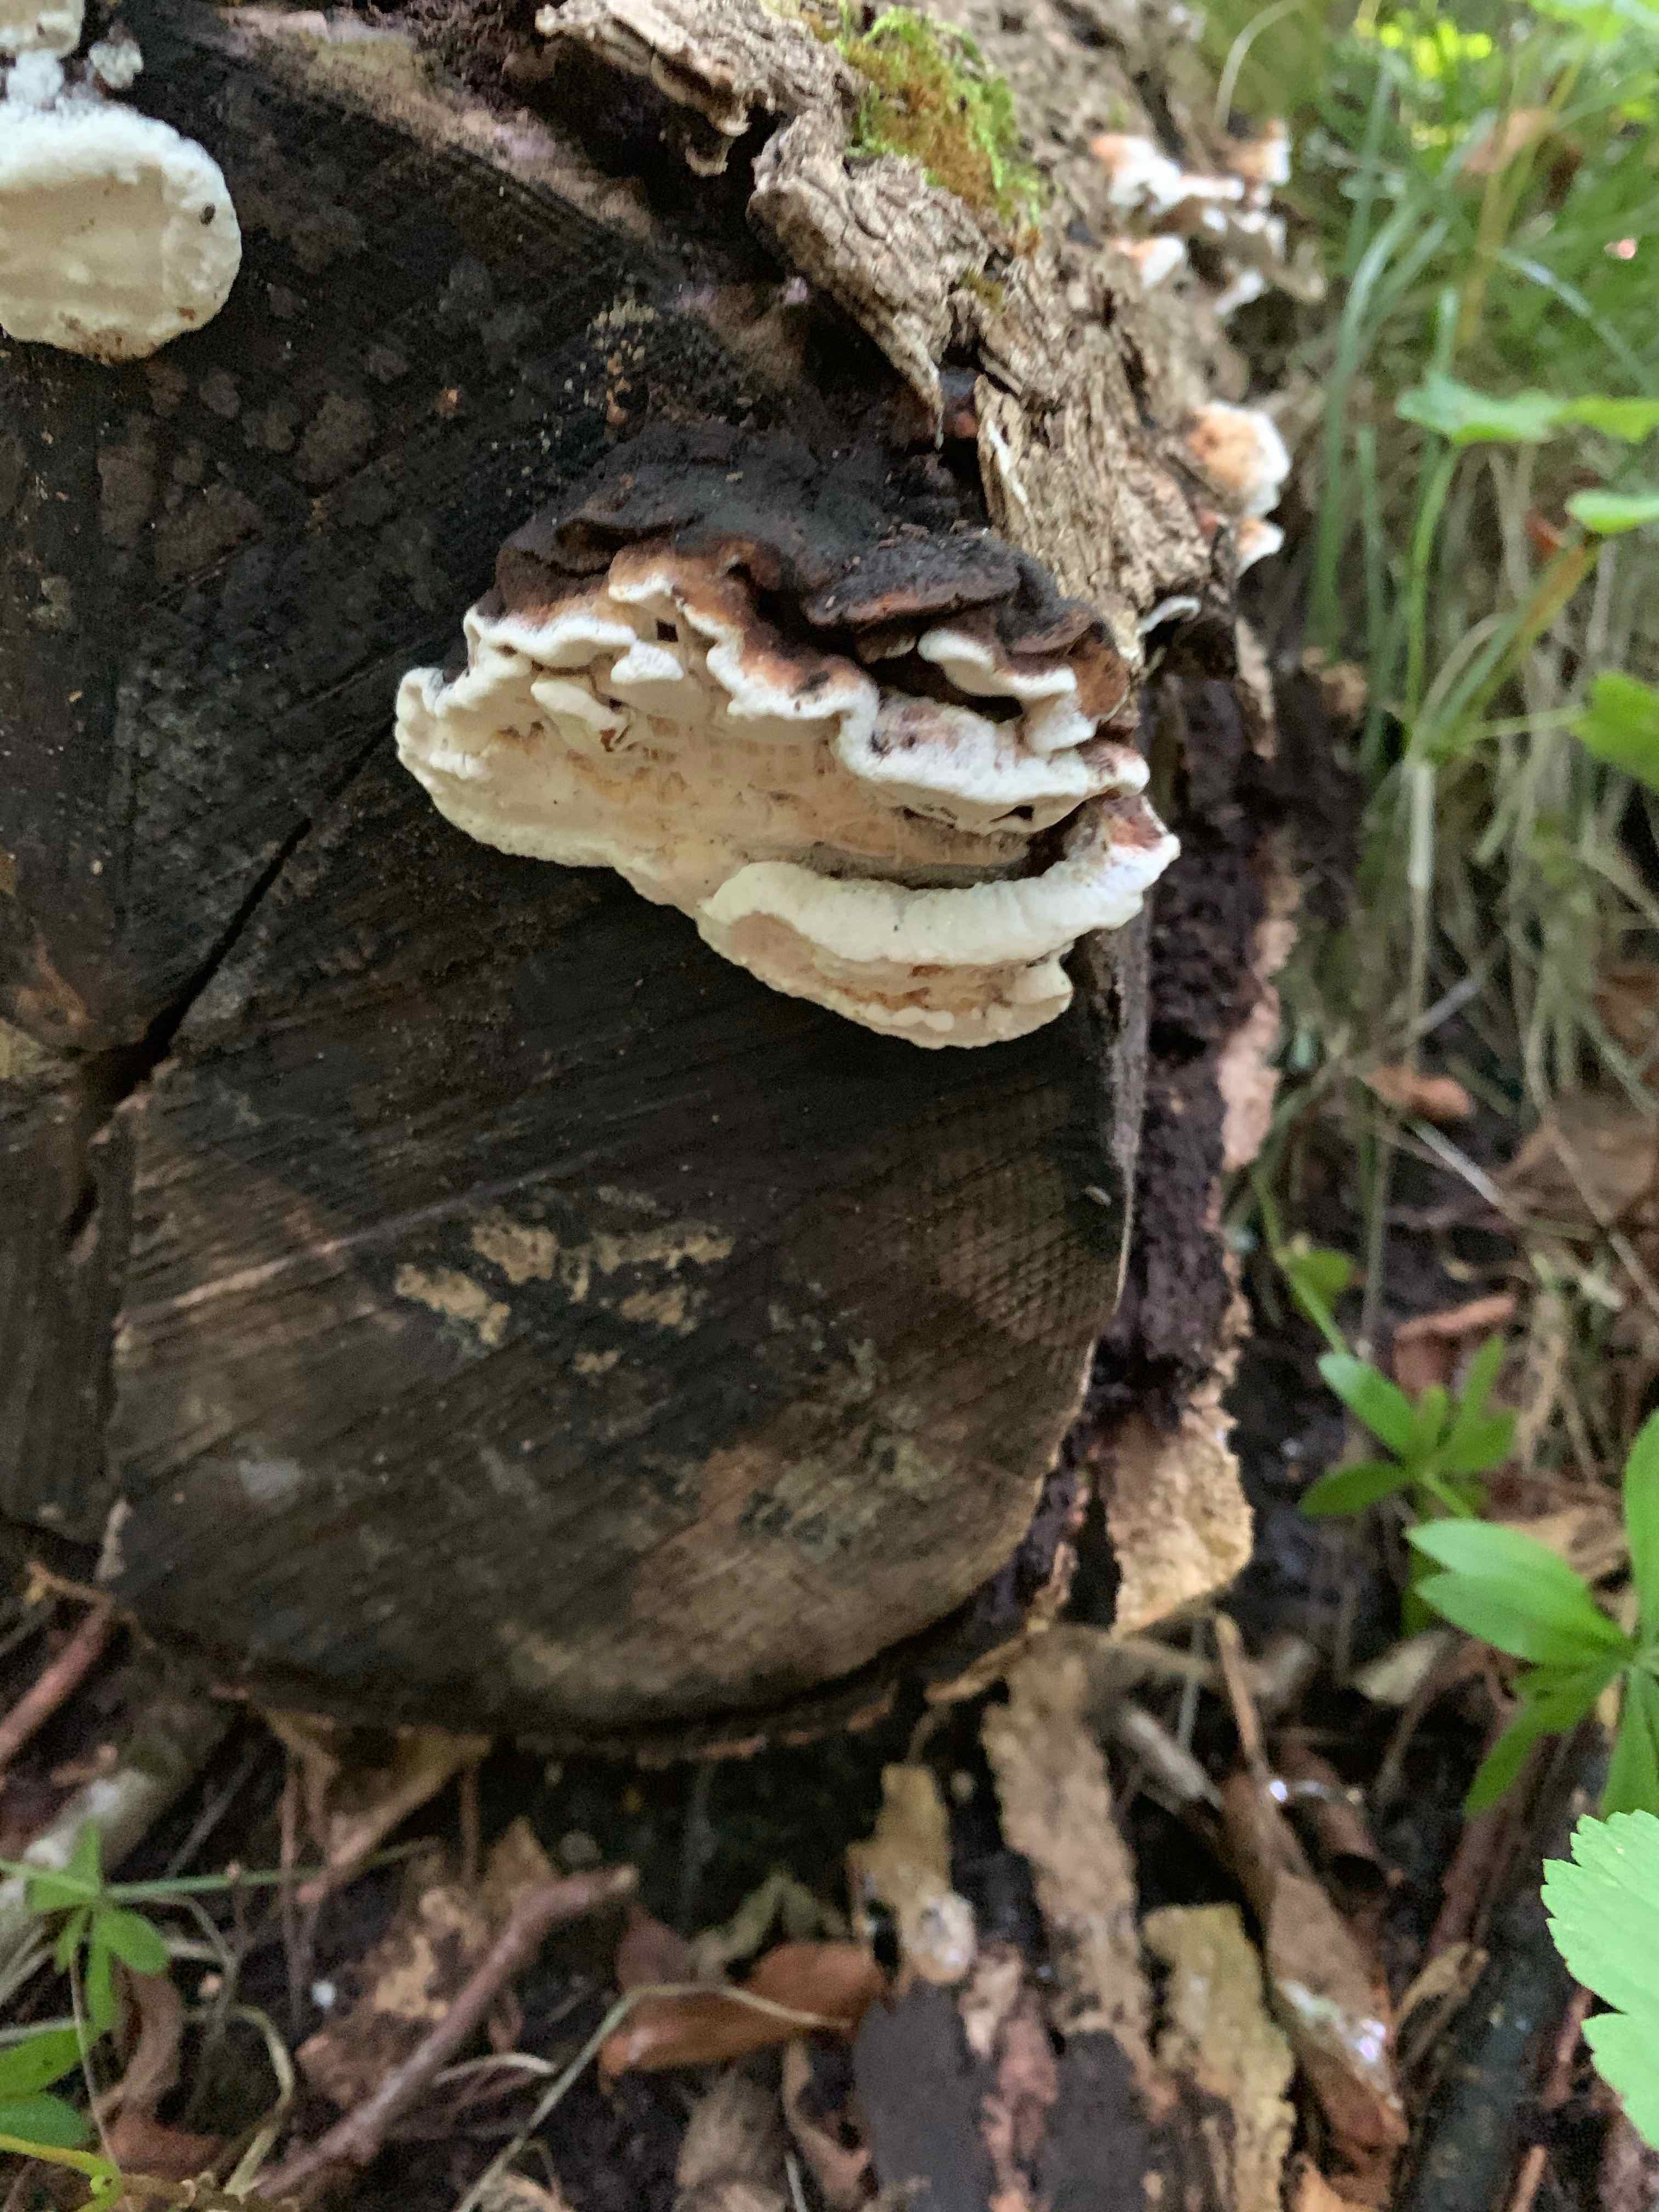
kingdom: Fungi
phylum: Basidiomycota
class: Agaricomycetes
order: Polyporales
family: Incrustoporiaceae
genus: Skeletocutis
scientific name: Skeletocutis nemoralis
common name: stor krystalporesvamp
